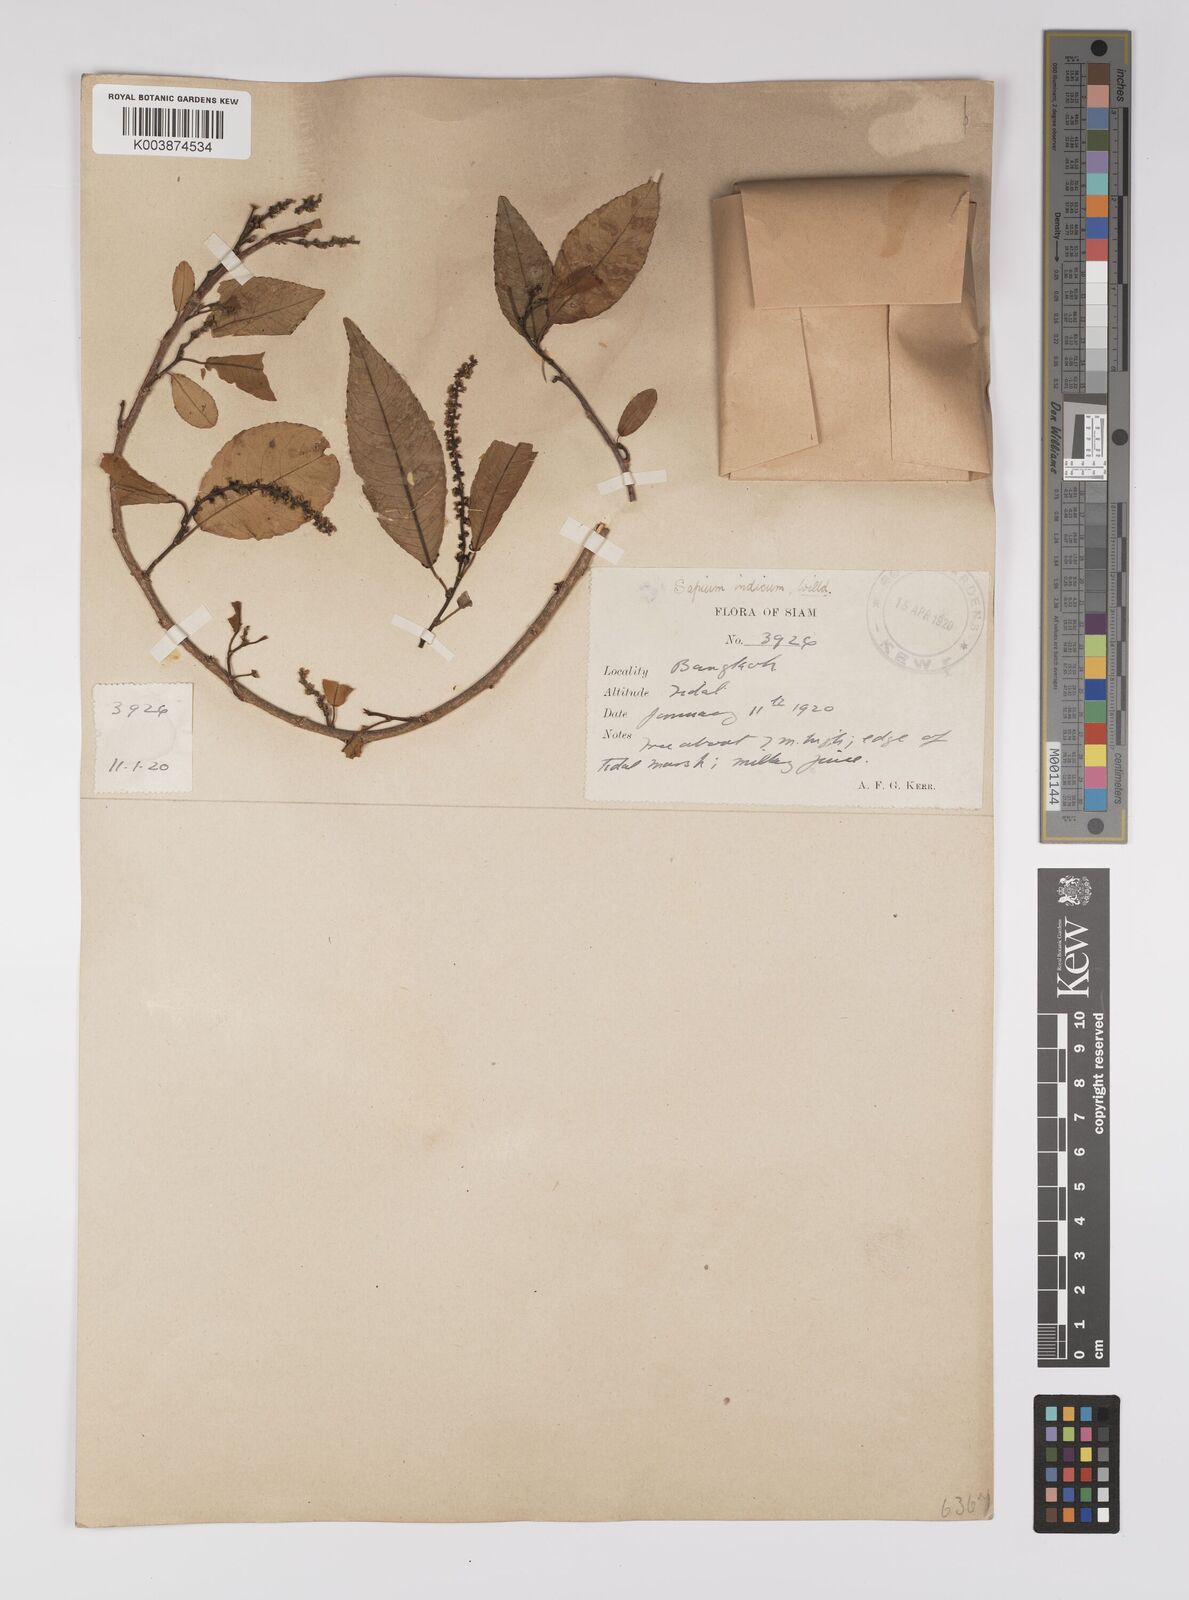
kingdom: Plantae
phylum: Tracheophyta
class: Magnoliopsida
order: Malpighiales
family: Euphorbiaceae
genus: Shirakiopsis
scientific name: Shirakiopsis indica
